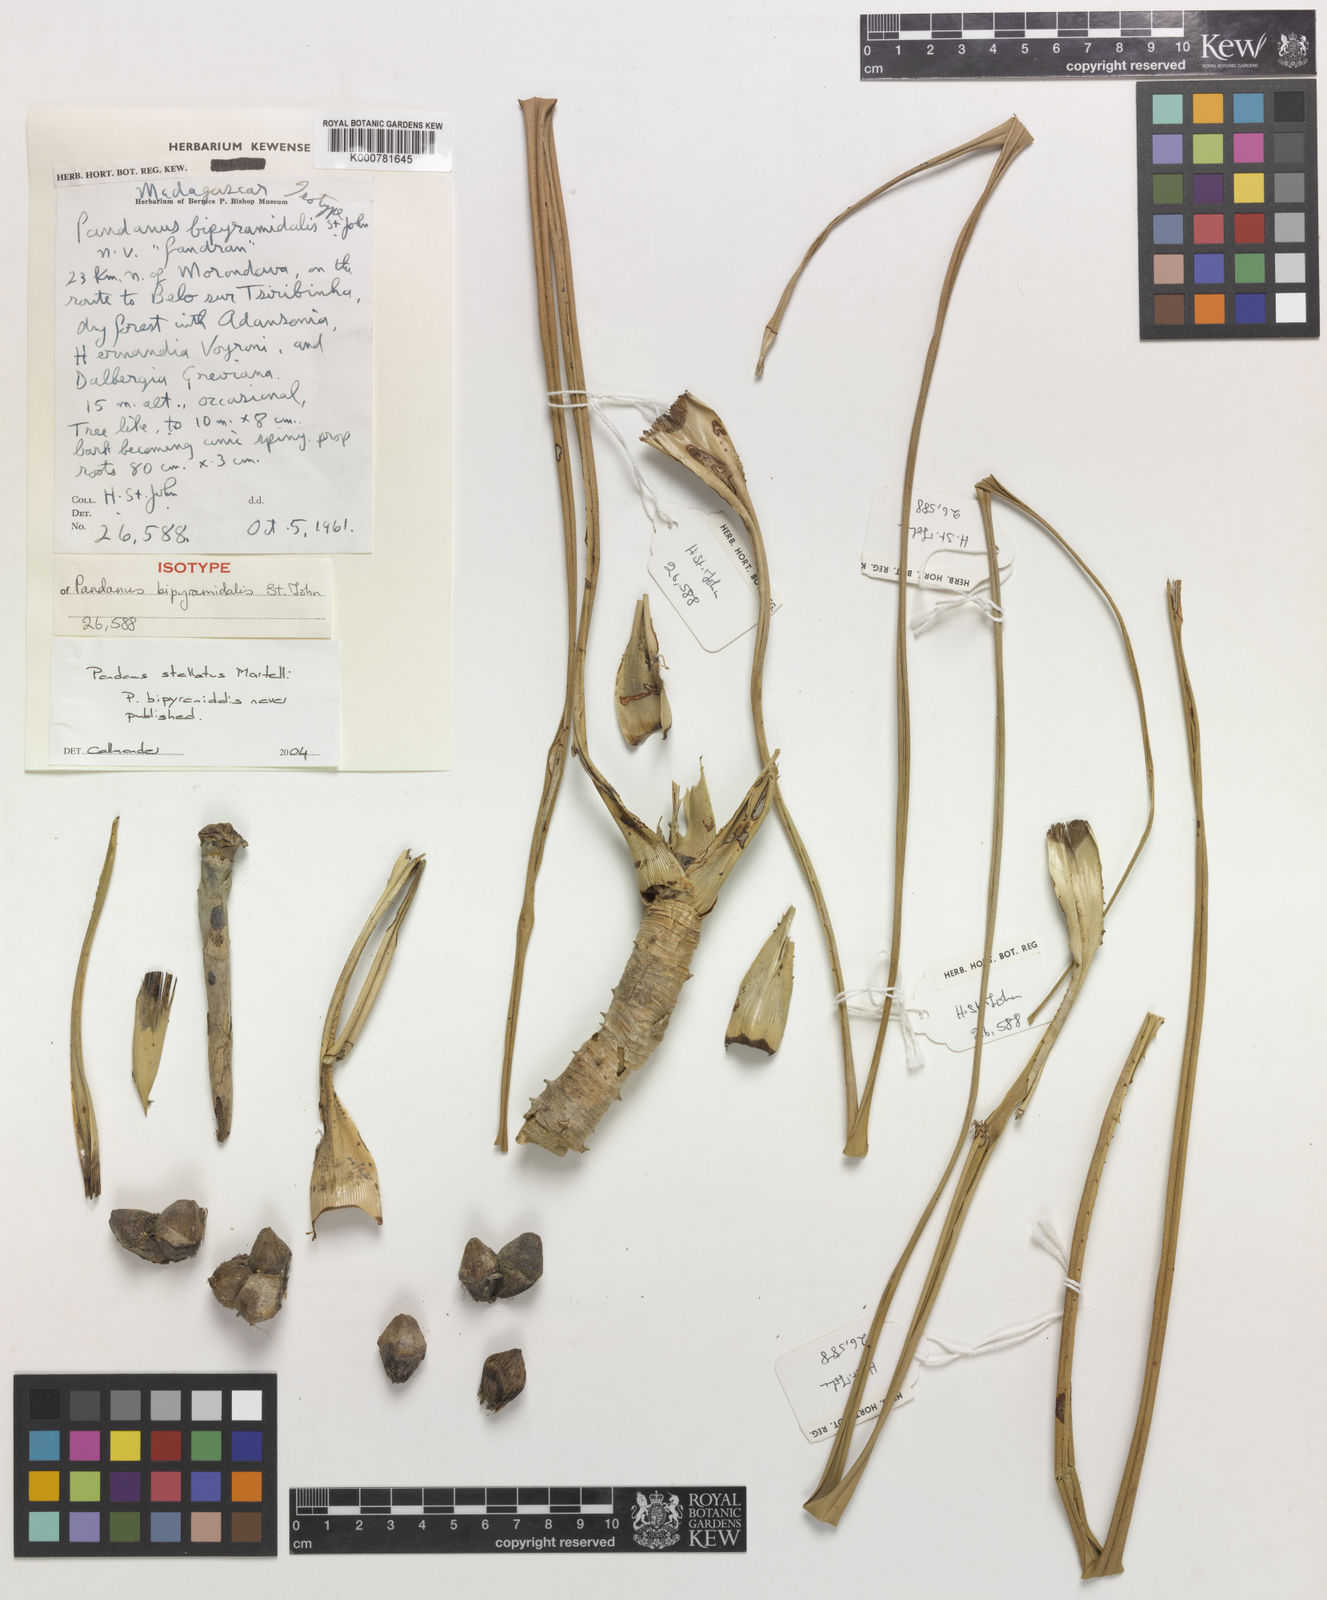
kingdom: Plantae
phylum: Tracheophyta
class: Liliopsida
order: Pandanales
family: Pandanaceae
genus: Pandanus
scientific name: Pandanus stellatus
